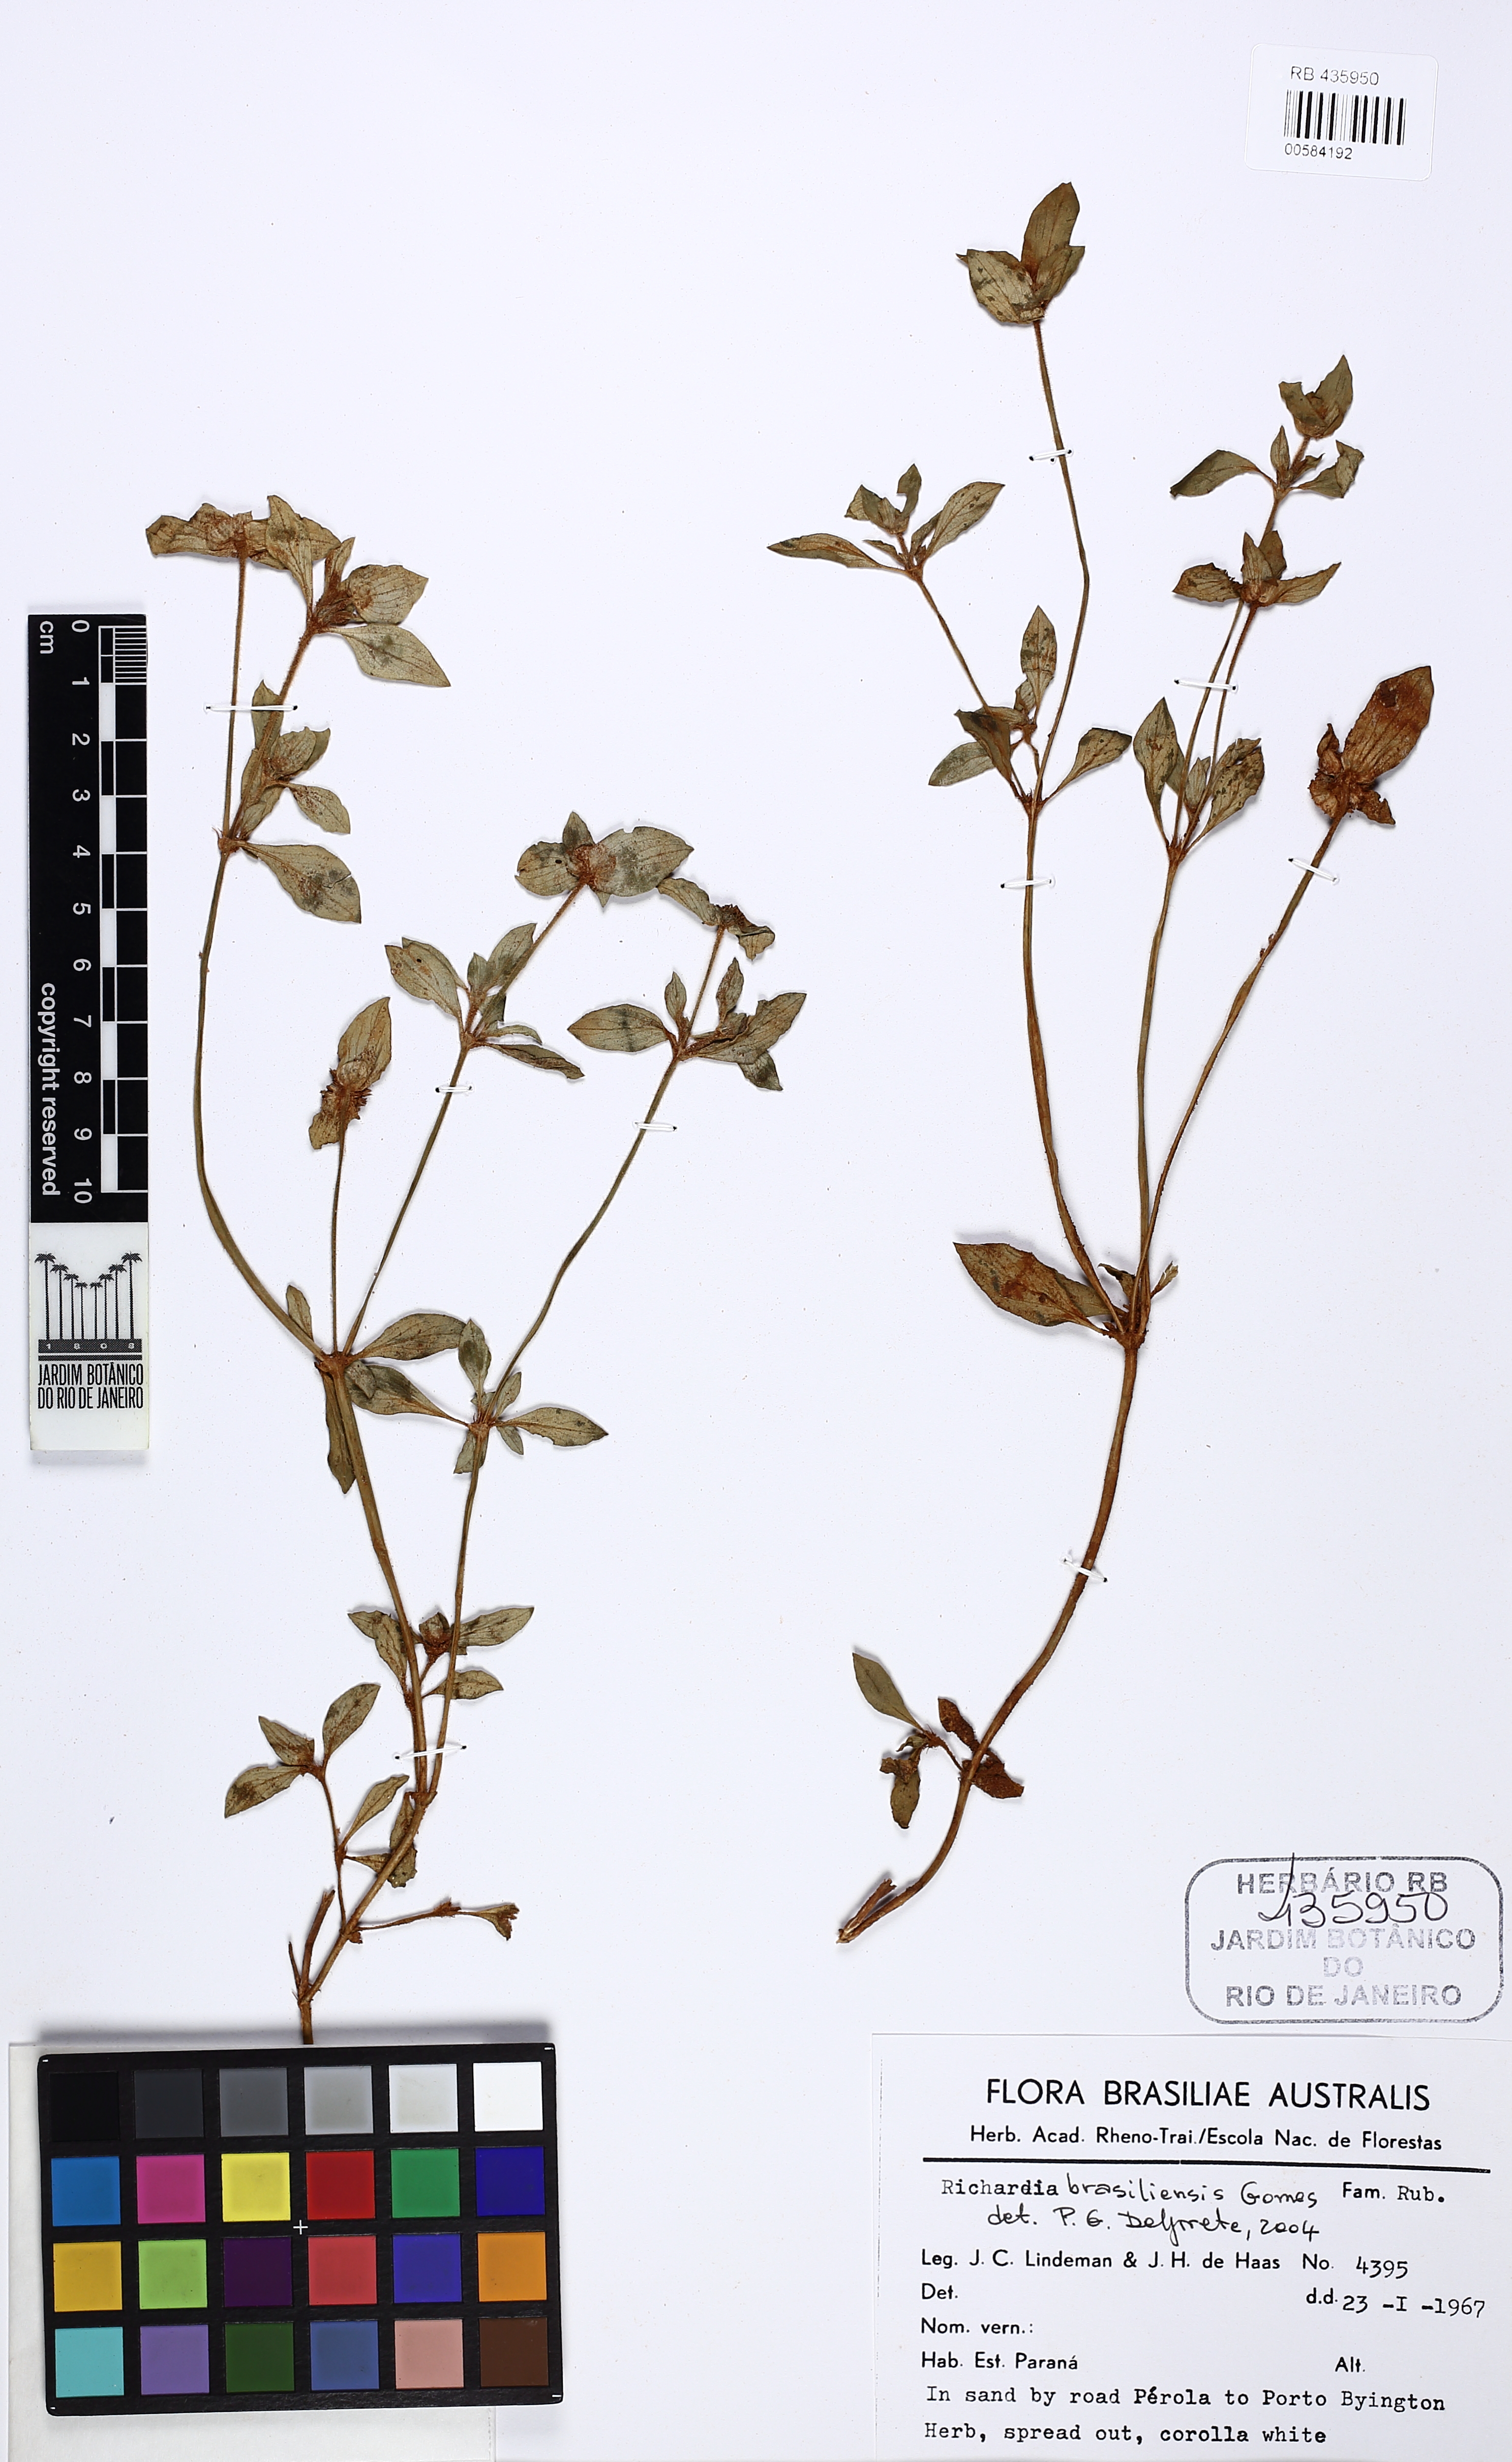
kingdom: Plantae
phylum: Tracheophyta
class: Magnoliopsida
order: Gentianales
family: Rubiaceae
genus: Richardia
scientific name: Richardia brasiliensis
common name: Tropical mexican clover
